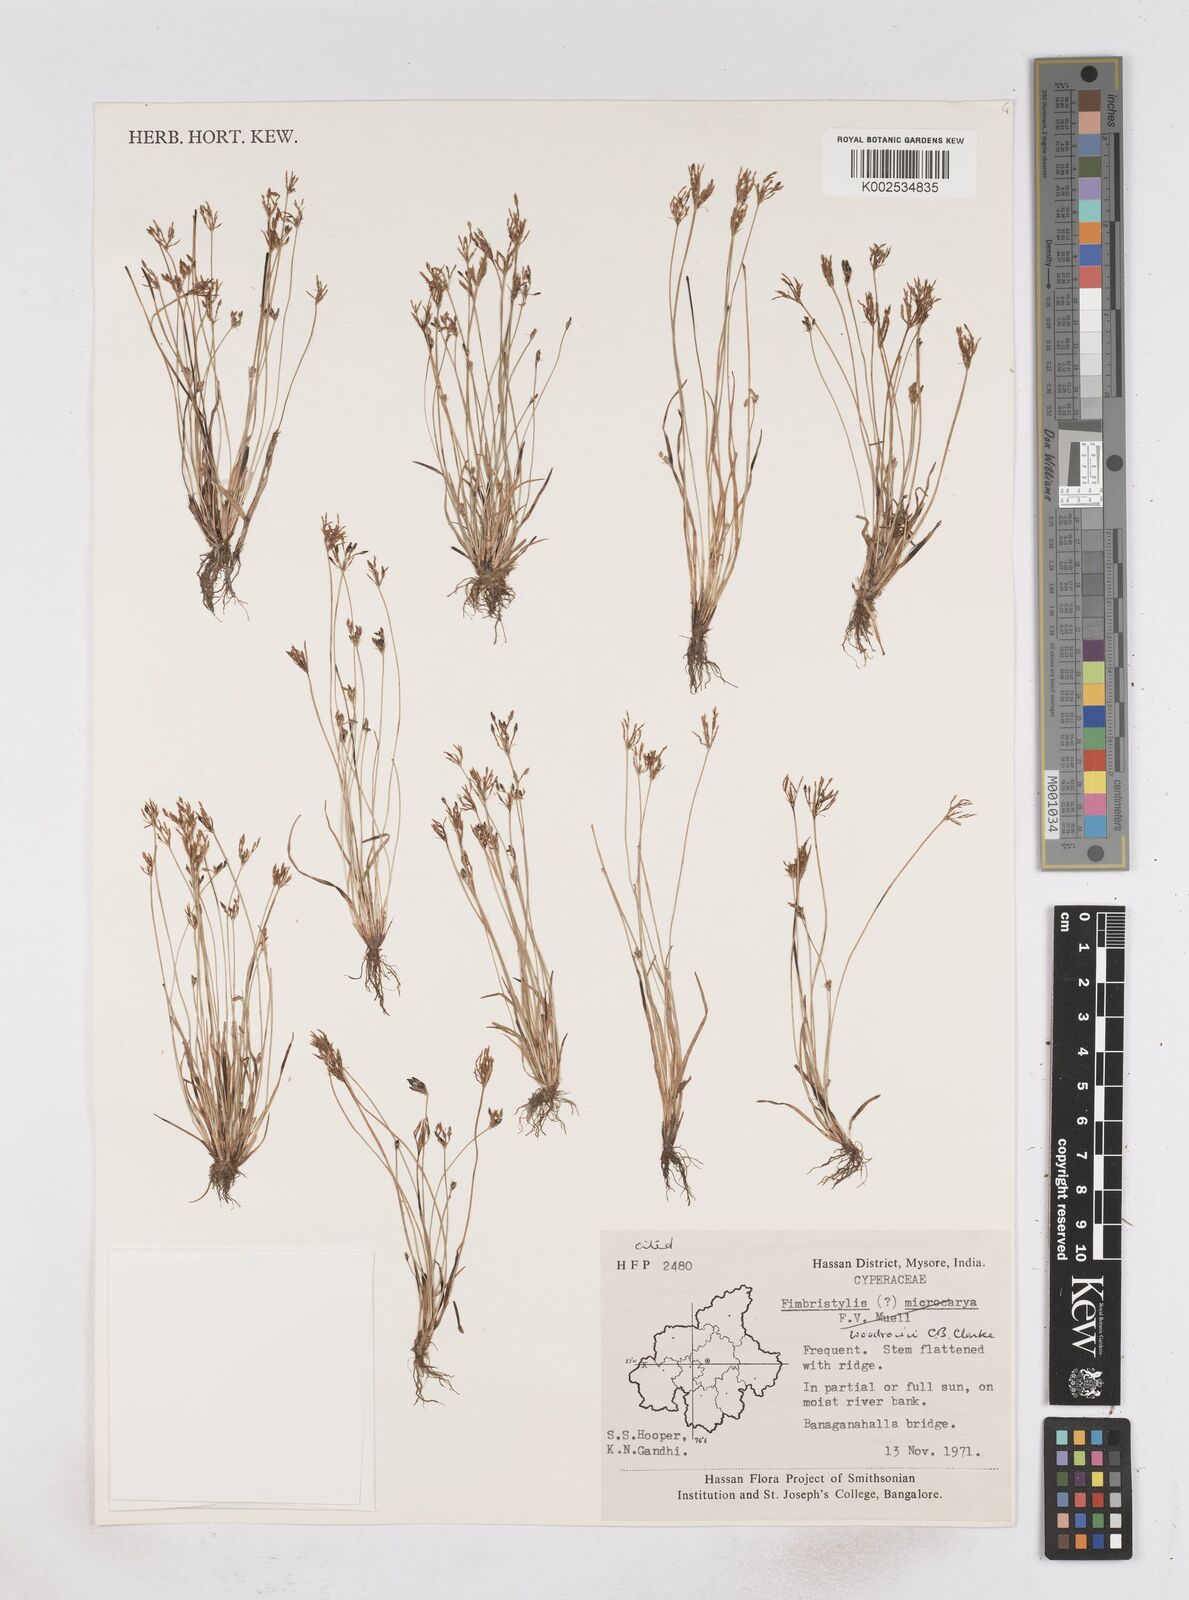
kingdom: Plantae
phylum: Tracheophyta
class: Liliopsida
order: Poales
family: Cyperaceae
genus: Fimbristylis
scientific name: Fimbristylis woodrowii
